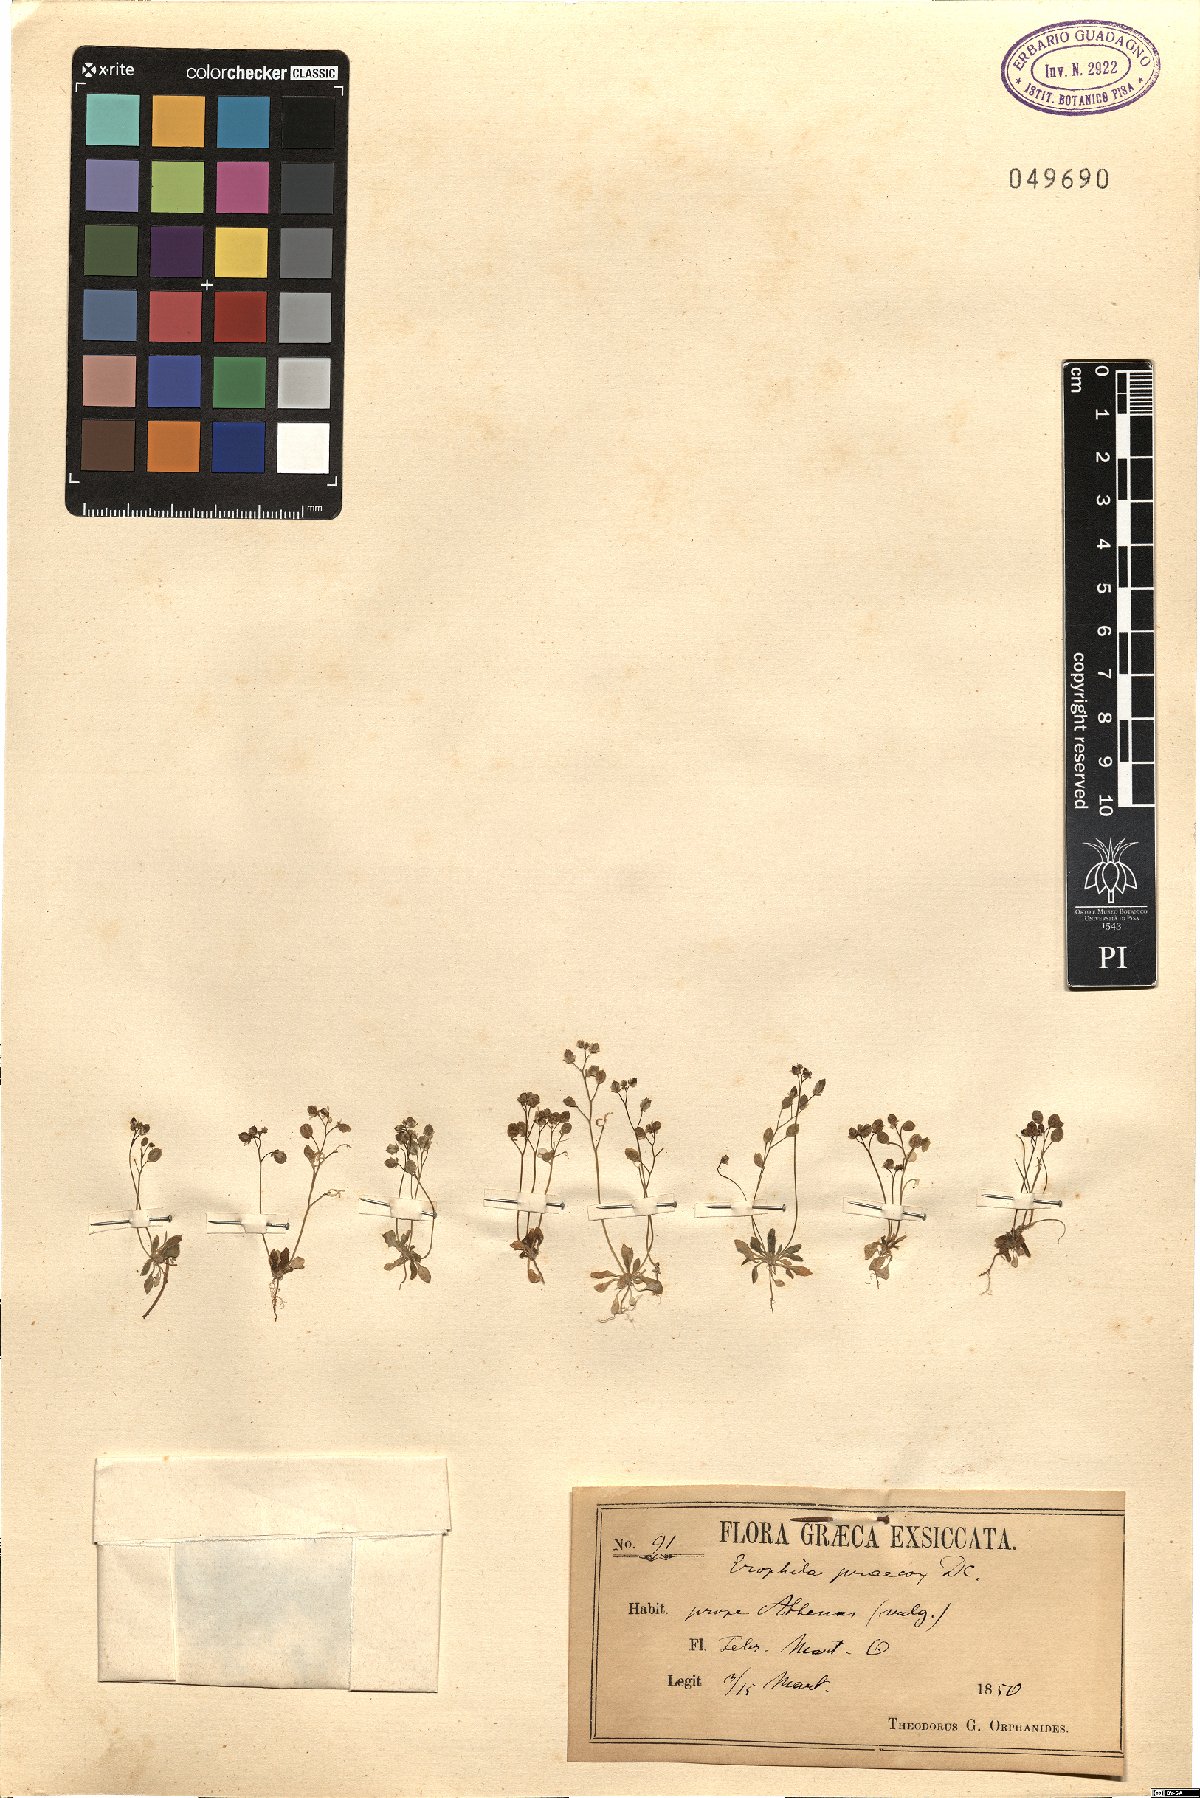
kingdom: Plantae
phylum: Tracheophyta
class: Magnoliopsida
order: Brassicales
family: Brassicaceae
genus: Draba
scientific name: Draba verna
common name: Spring draba
